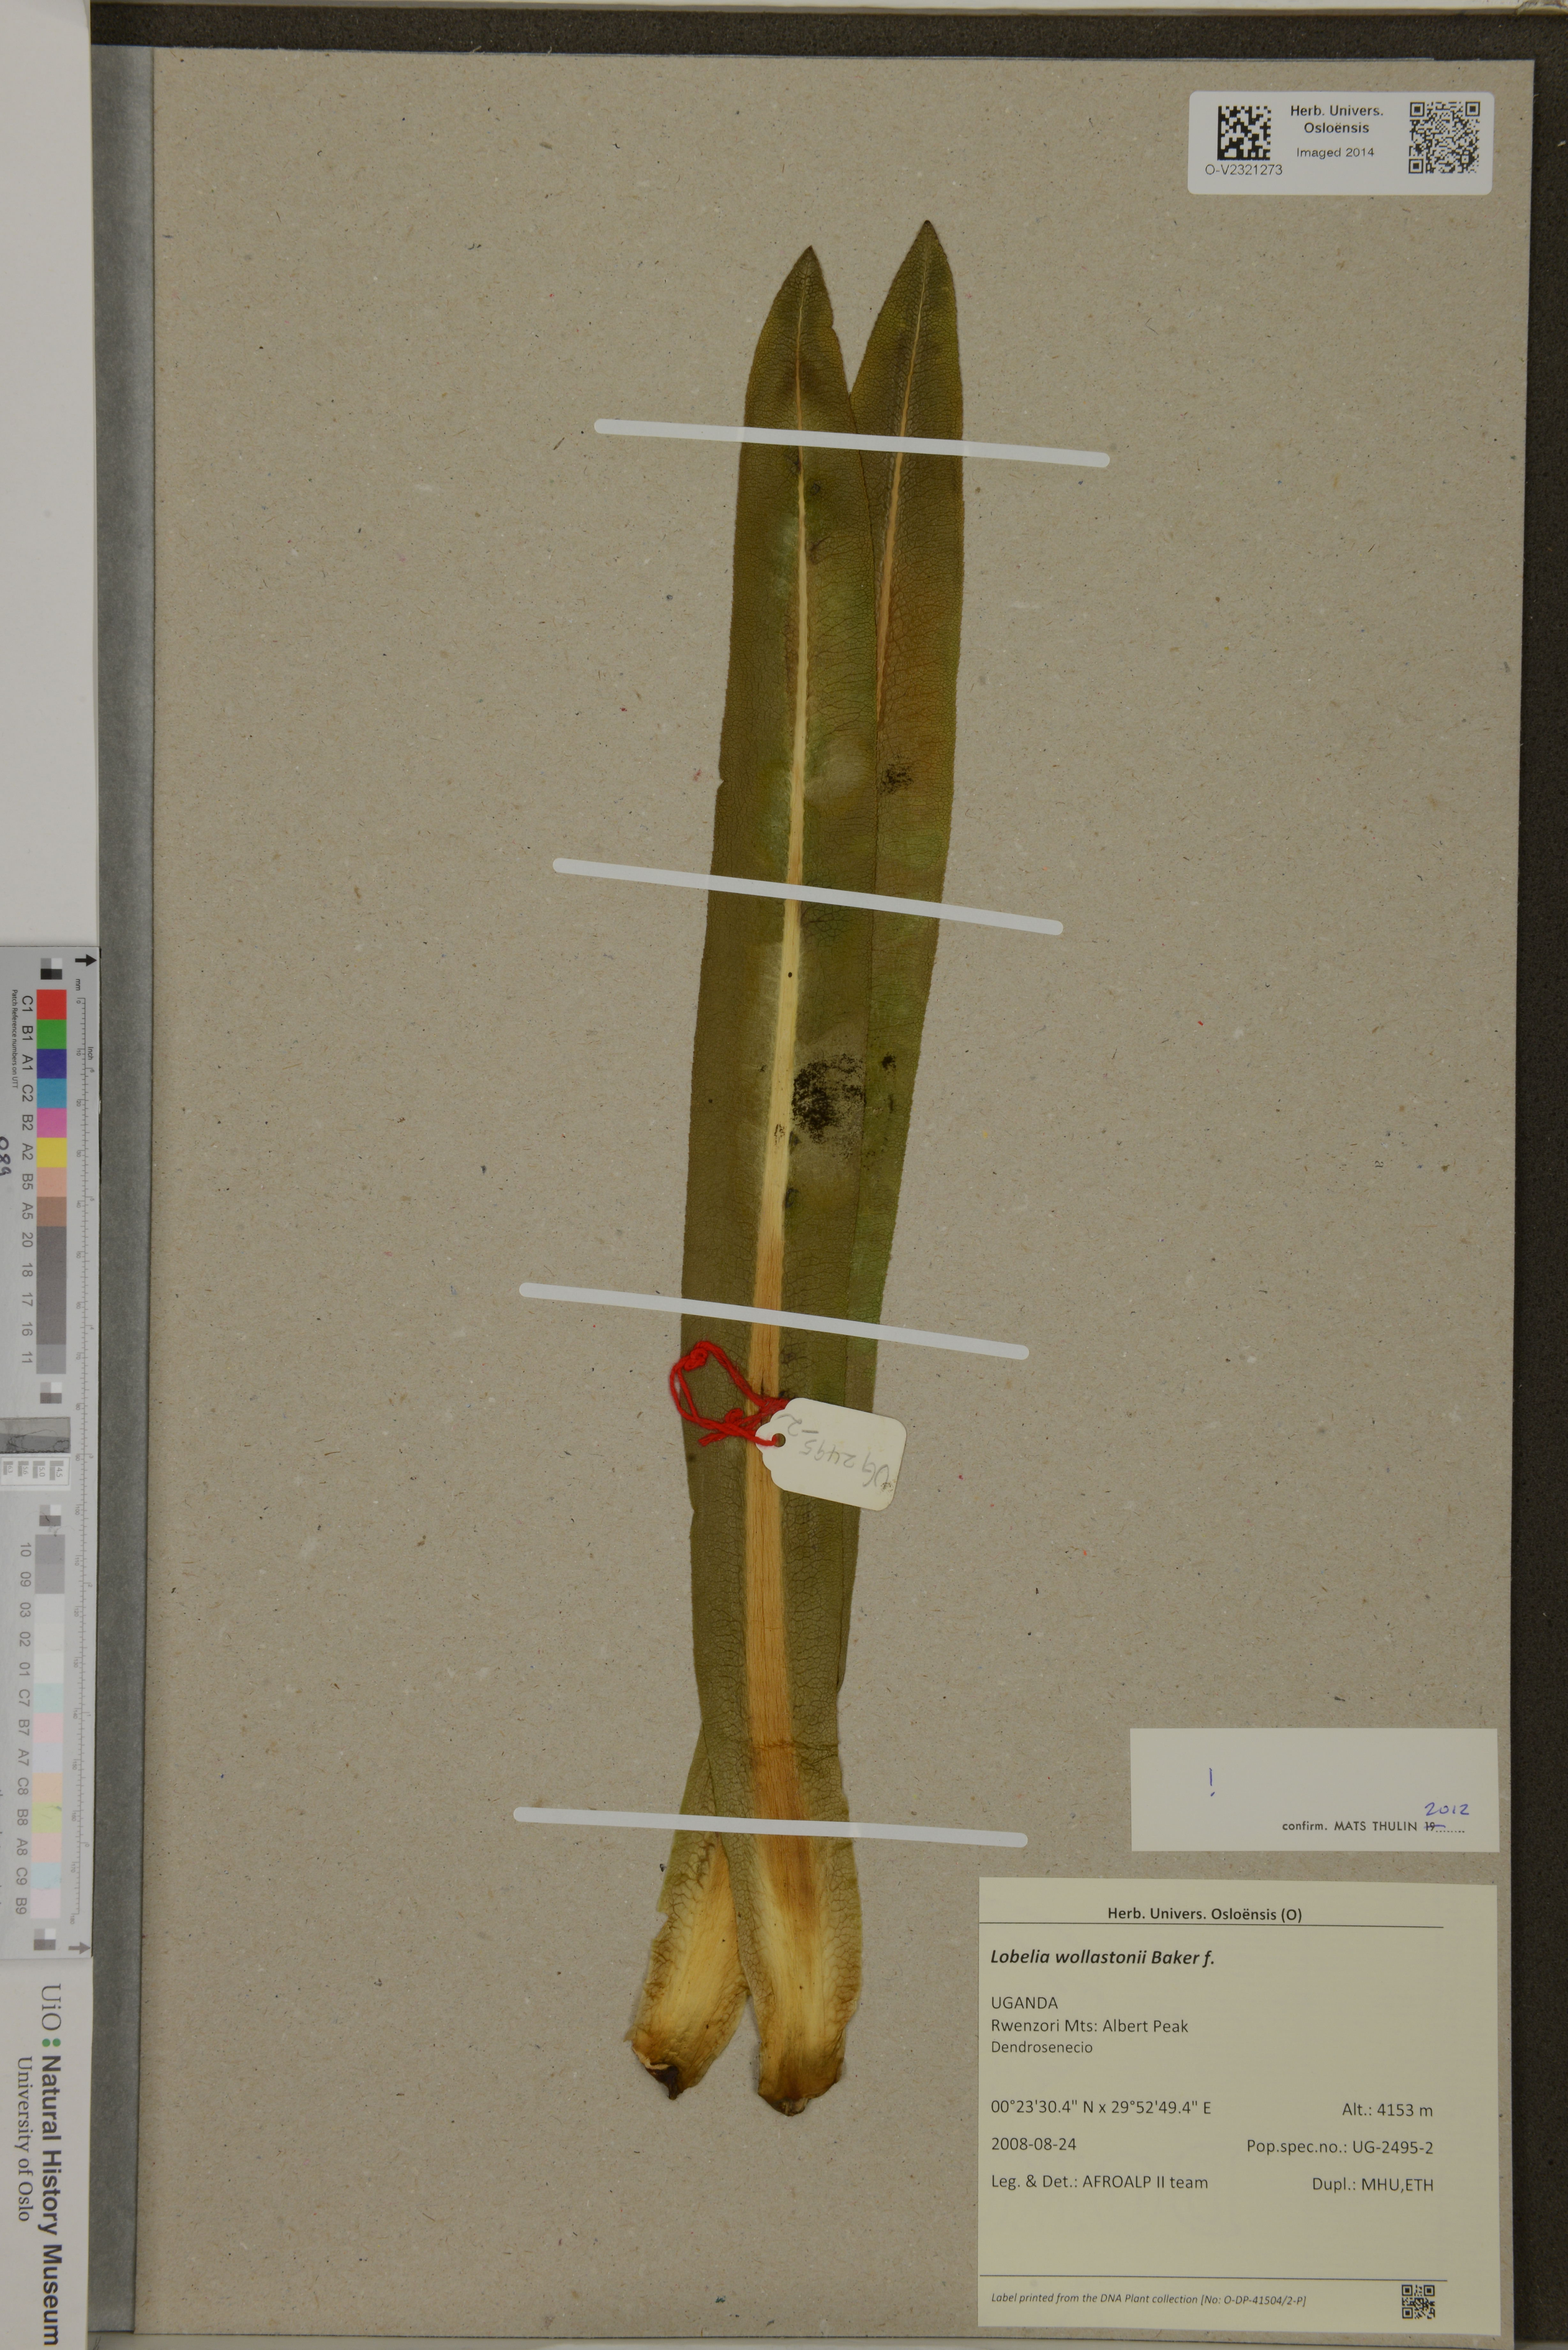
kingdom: Plantae
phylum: Tracheophyta
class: Magnoliopsida
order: Asterales
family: Campanulaceae
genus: Lobelia
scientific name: Lobelia wollastonii
